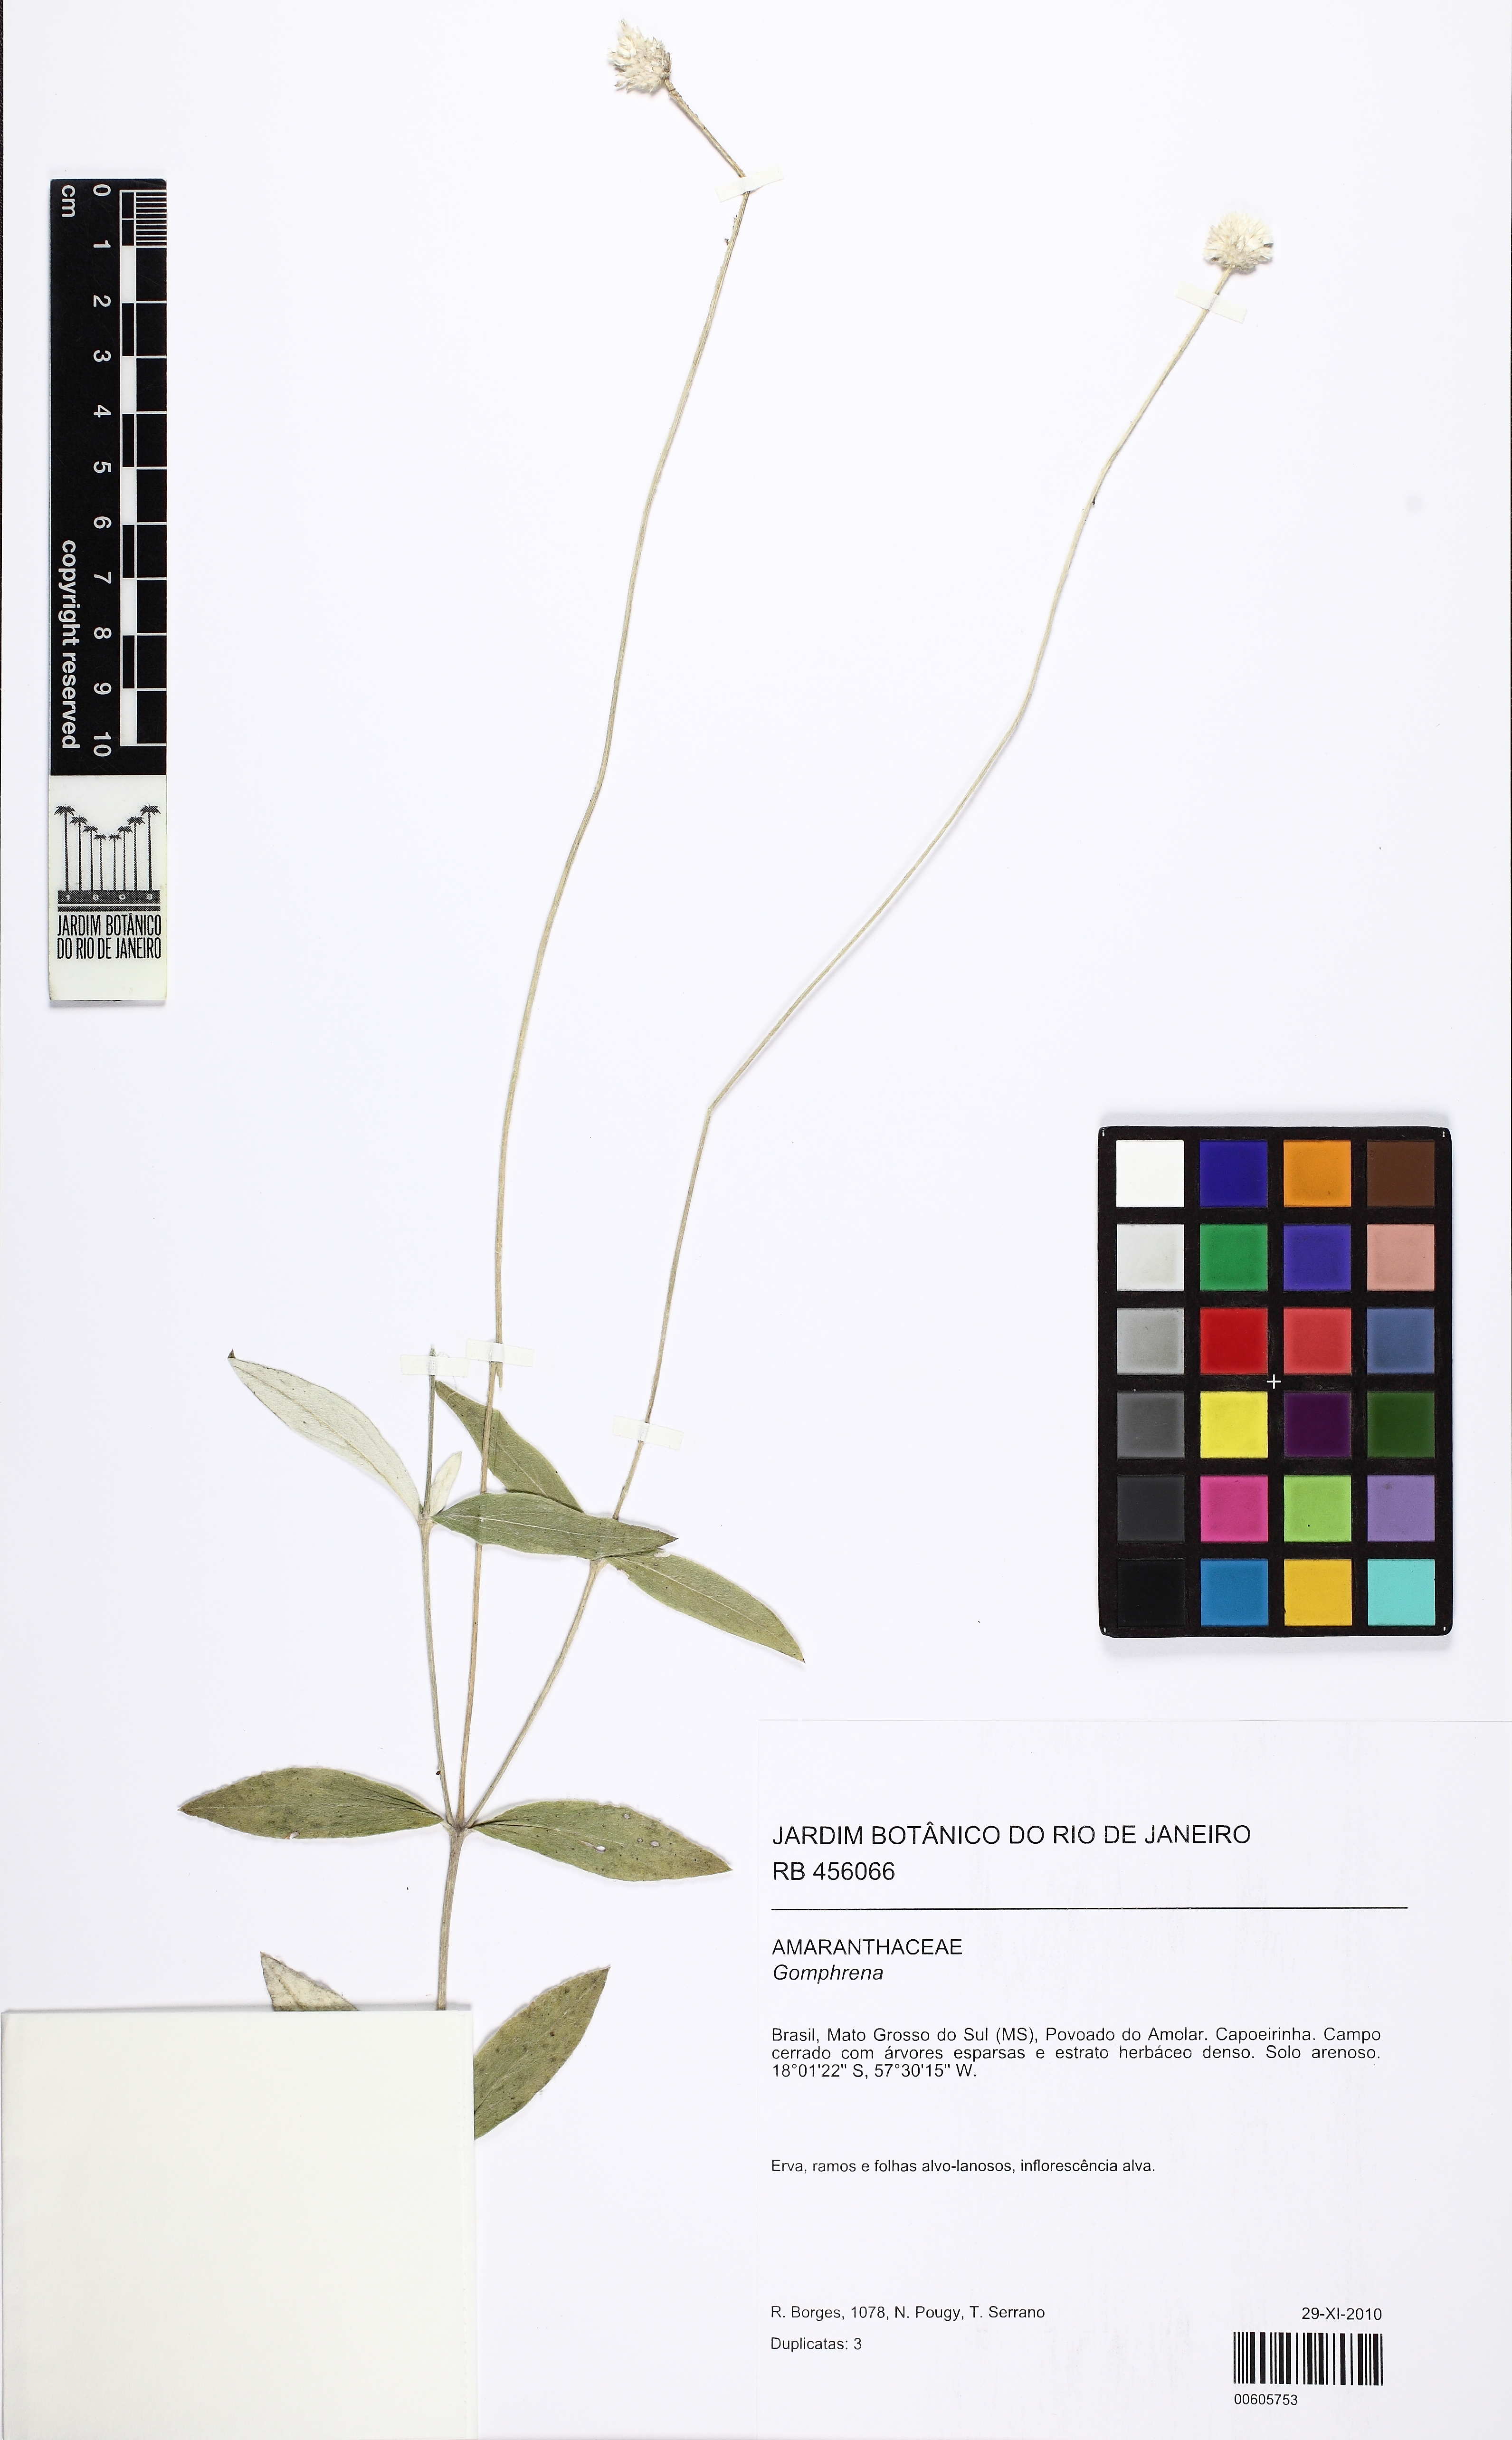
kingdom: Plantae
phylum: Tracheophyta
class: Magnoliopsida
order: Caryophyllales
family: Amaranthaceae
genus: Gomphrena
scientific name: Gomphrena
